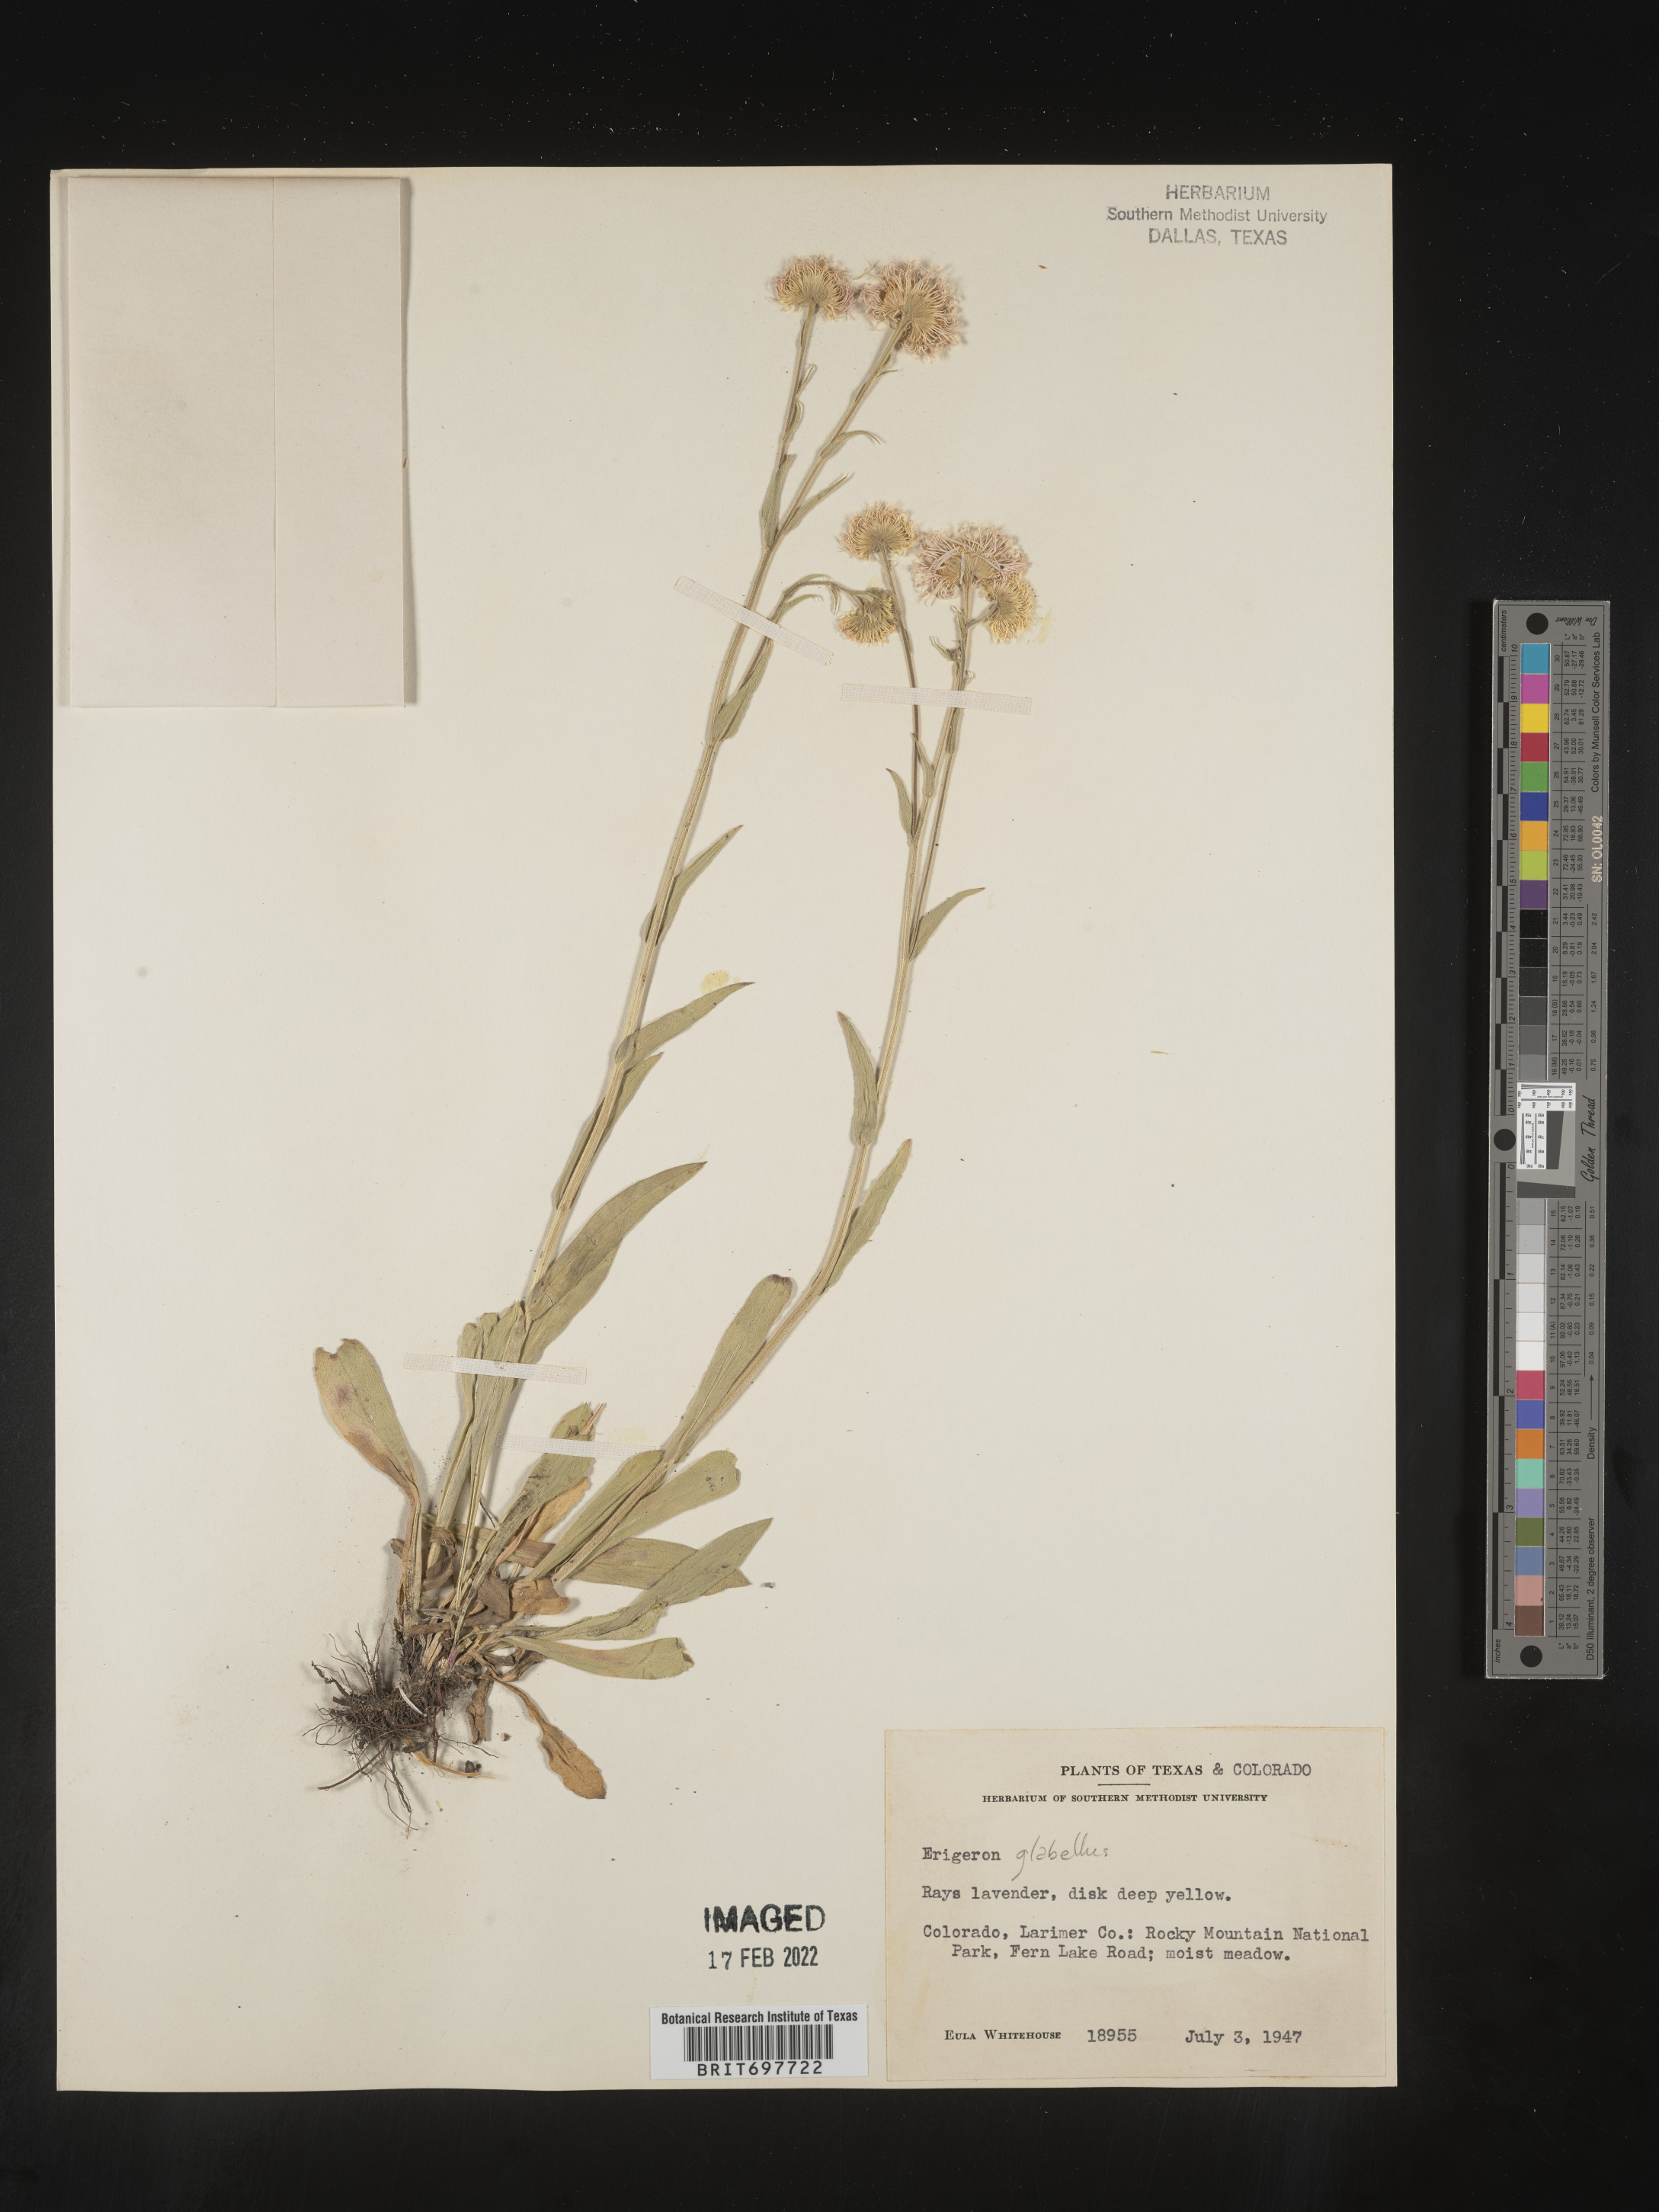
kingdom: Plantae
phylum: Tracheophyta
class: Magnoliopsida
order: Asterales
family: Asteraceae
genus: Erigeron
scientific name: Erigeron glabellus
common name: Smooth fleabane
